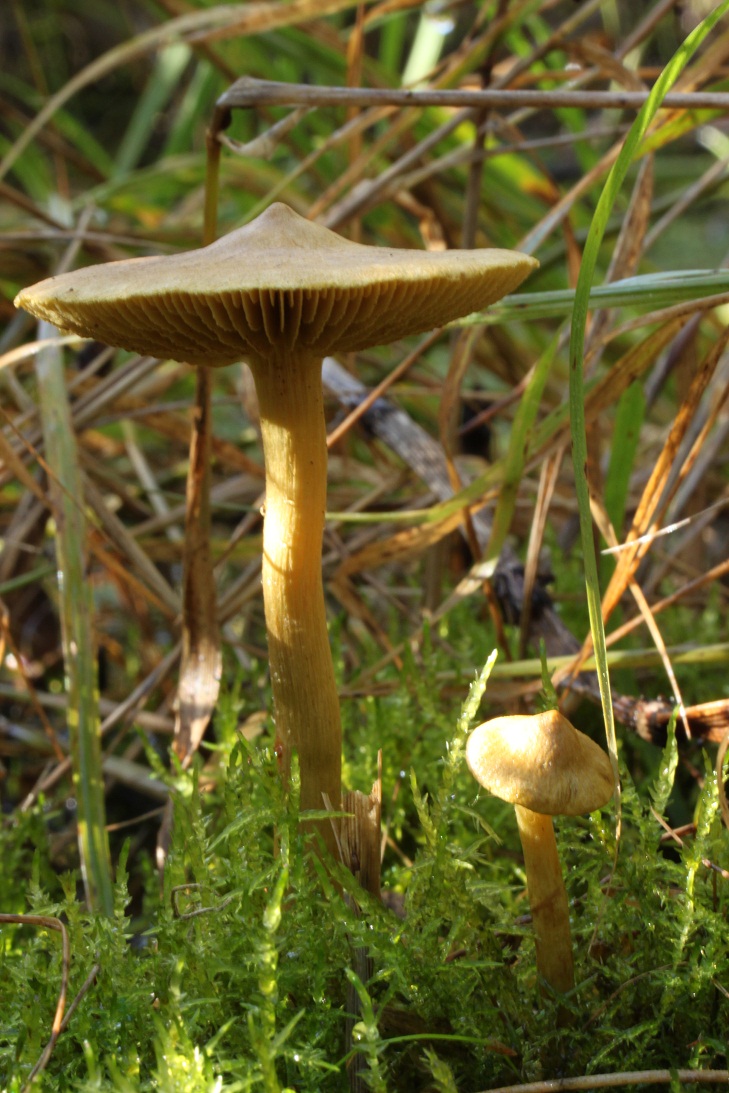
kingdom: Fungi
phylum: Basidiomycota
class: Agaricomycetes
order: Agaricales
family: Cortinariaceae
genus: Cortinarius
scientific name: Cortinarius uliginosus
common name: Marsh webcap
